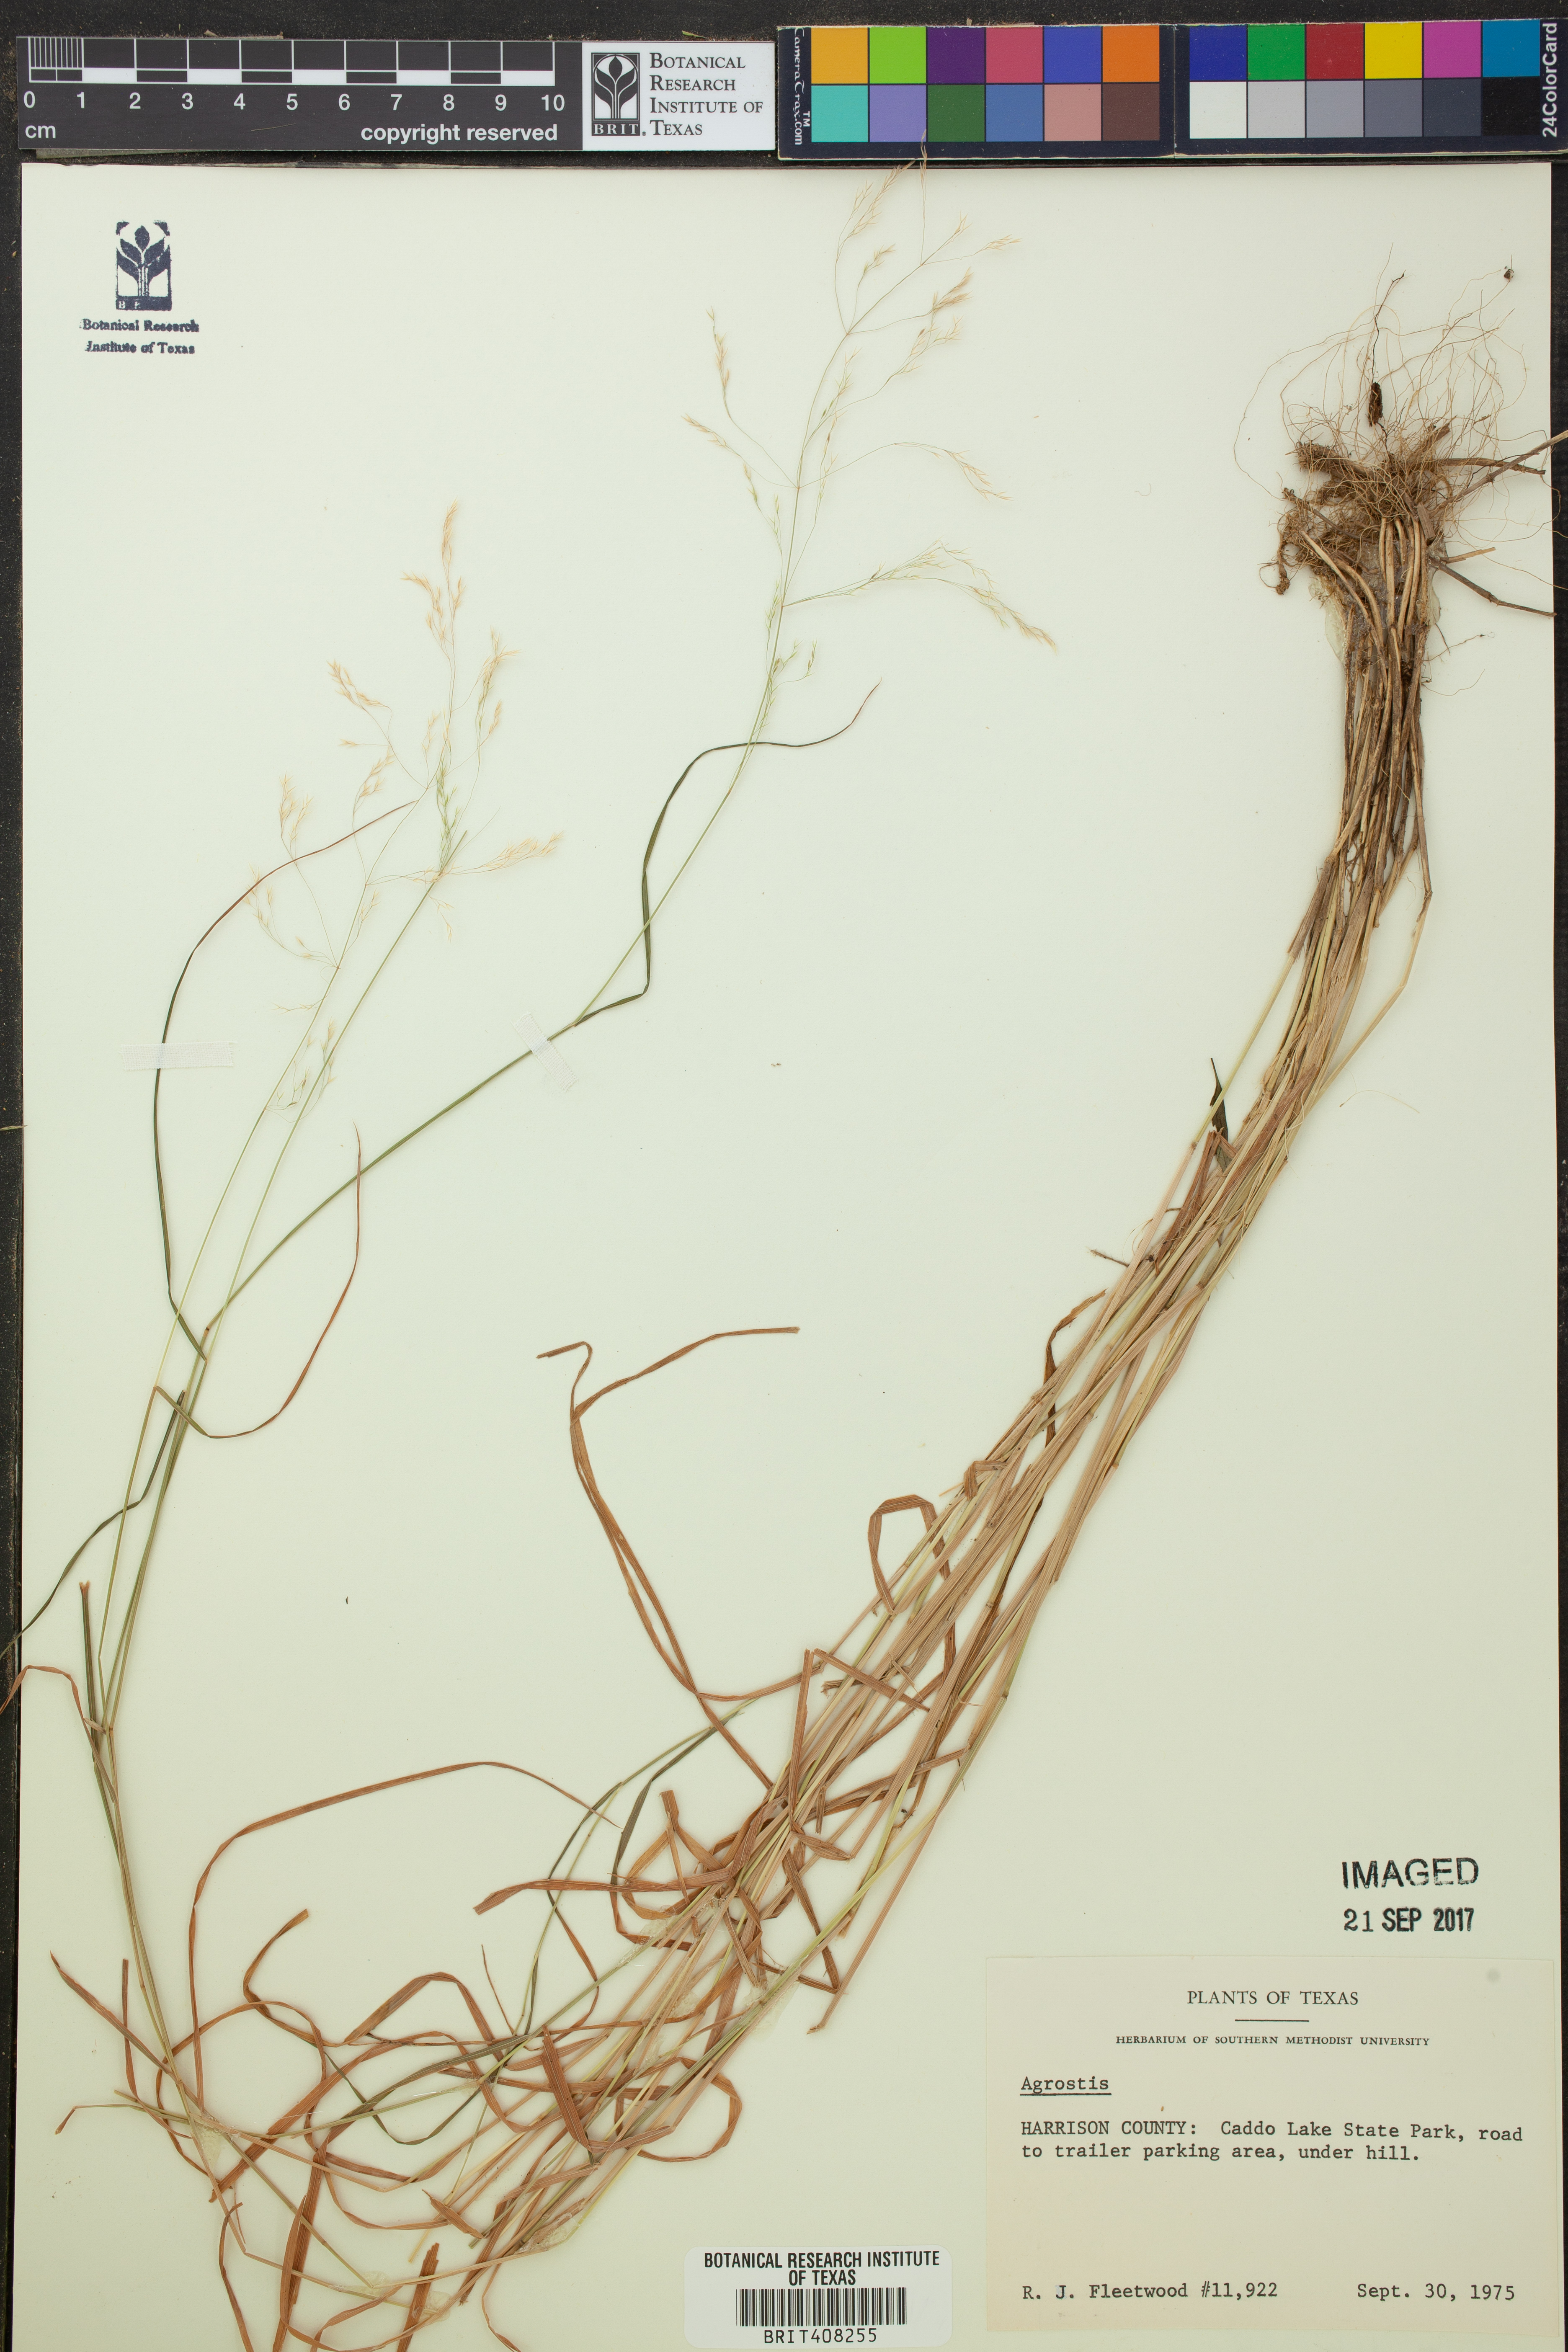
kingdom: Plantae
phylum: Tracheophyta
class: Liliopsida
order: Poales
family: Poaceae
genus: Agrostis
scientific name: Agrostis
